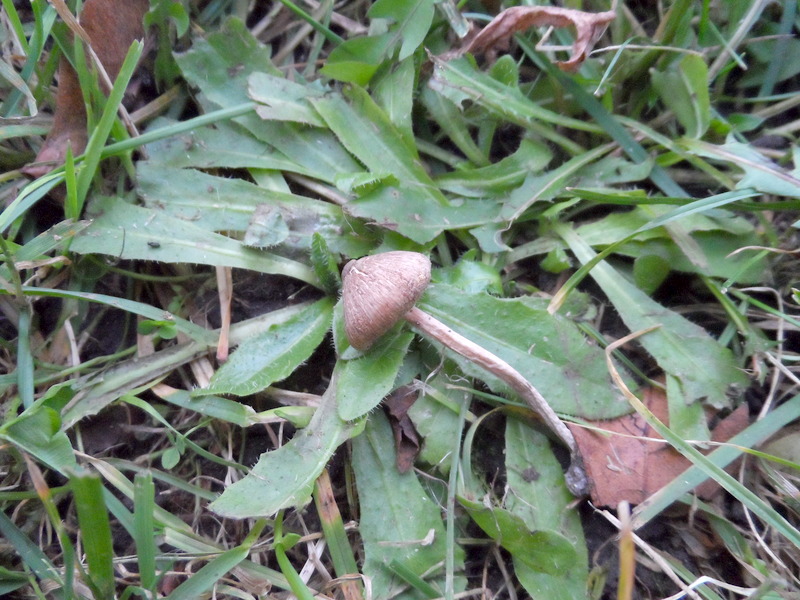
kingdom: Fungi
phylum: Basidiomycota
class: Agaricomycetes
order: Agaricales
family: Inocybaceae
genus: Inocybe
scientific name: Inocybe sindonia
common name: Beige fibrecap
